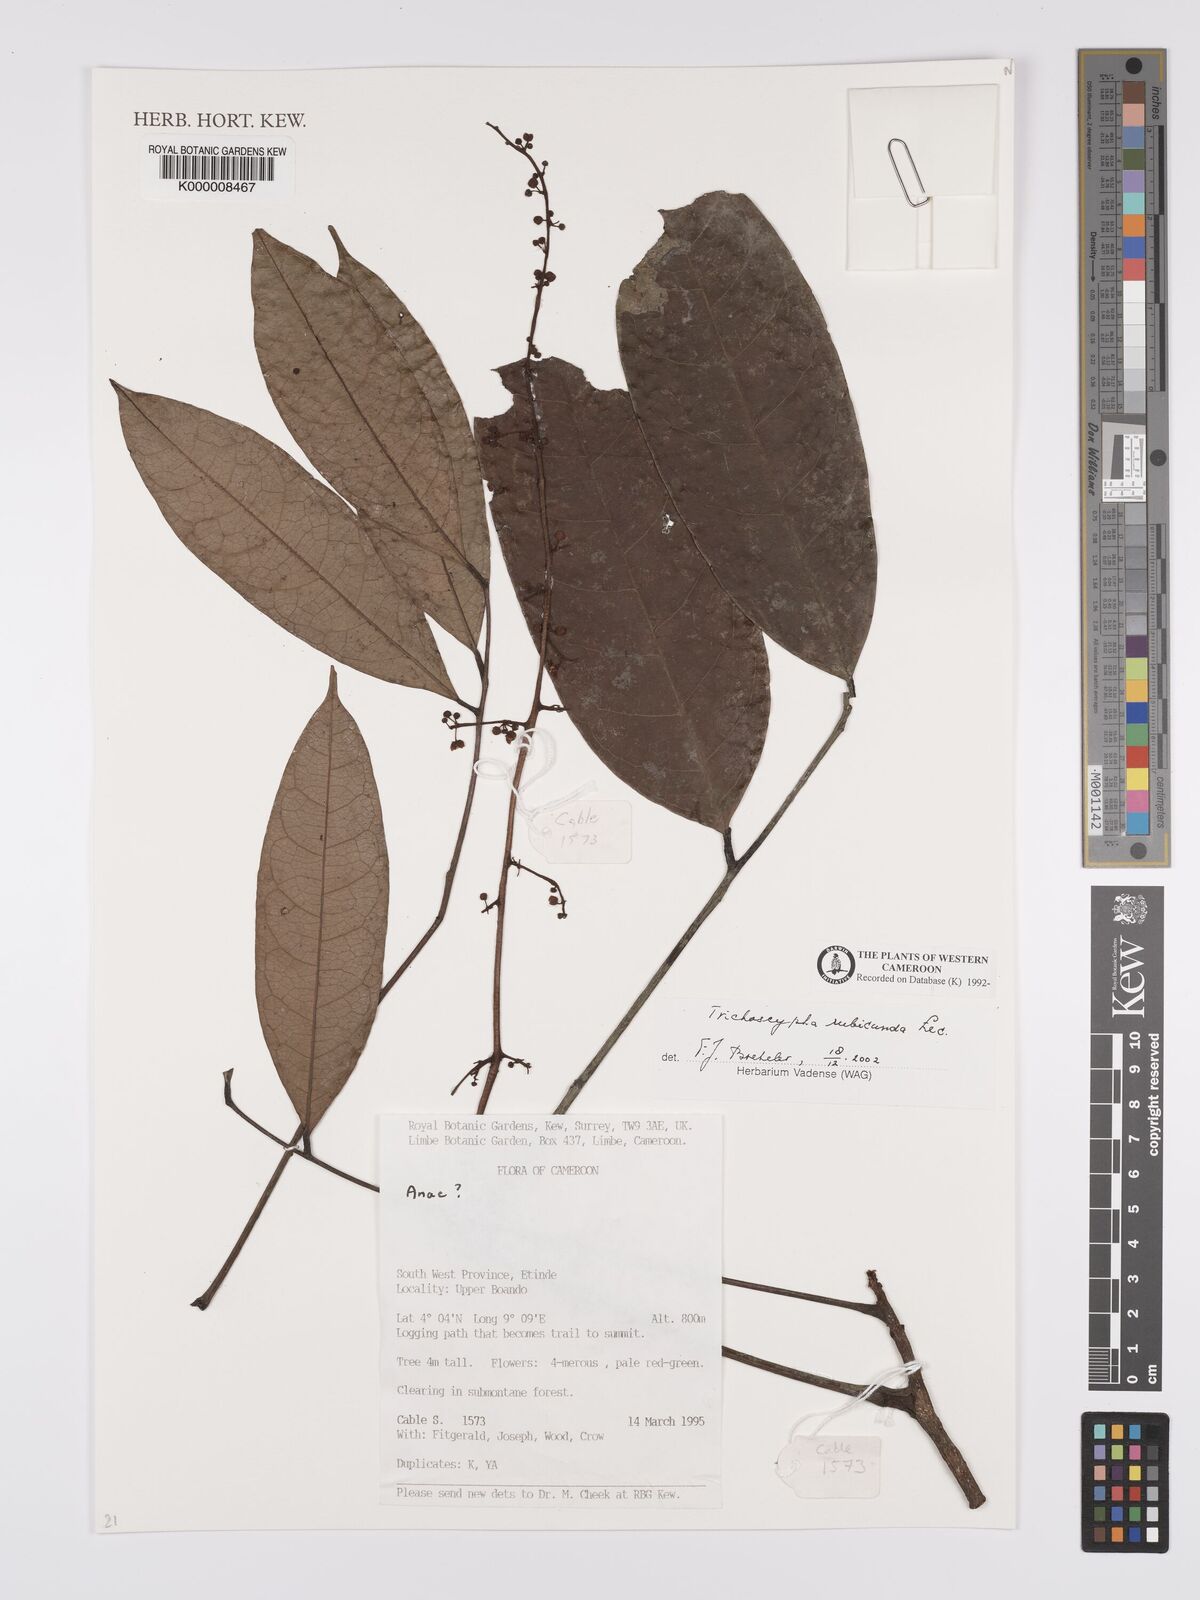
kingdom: Plantae
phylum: Tracheophyta
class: Magnoliopsida
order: Sapindales
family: Anacardiaceae
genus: Trichoscypha
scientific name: Trichoscypha rubicunda
